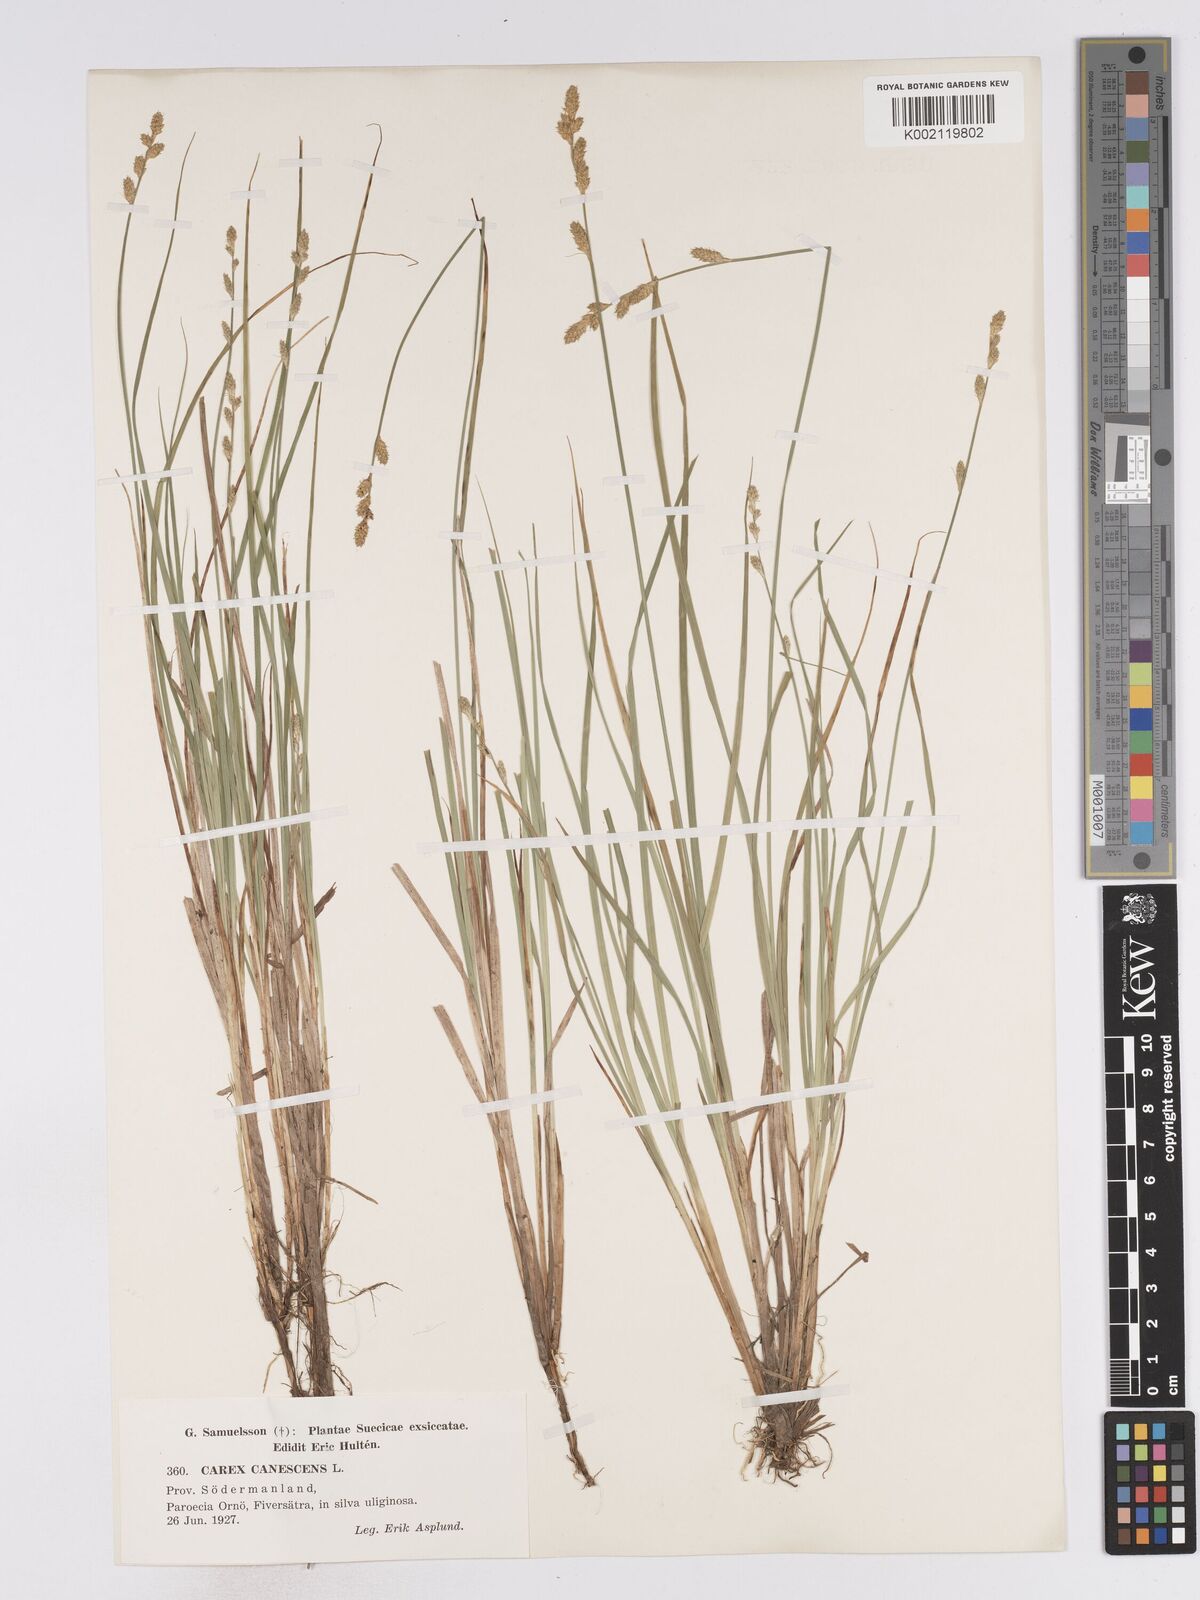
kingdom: Plantae
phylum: Tracheophyta
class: Liliopsida
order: Poales
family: Cyperaceae
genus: Carex
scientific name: Carex curta
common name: White sedge
